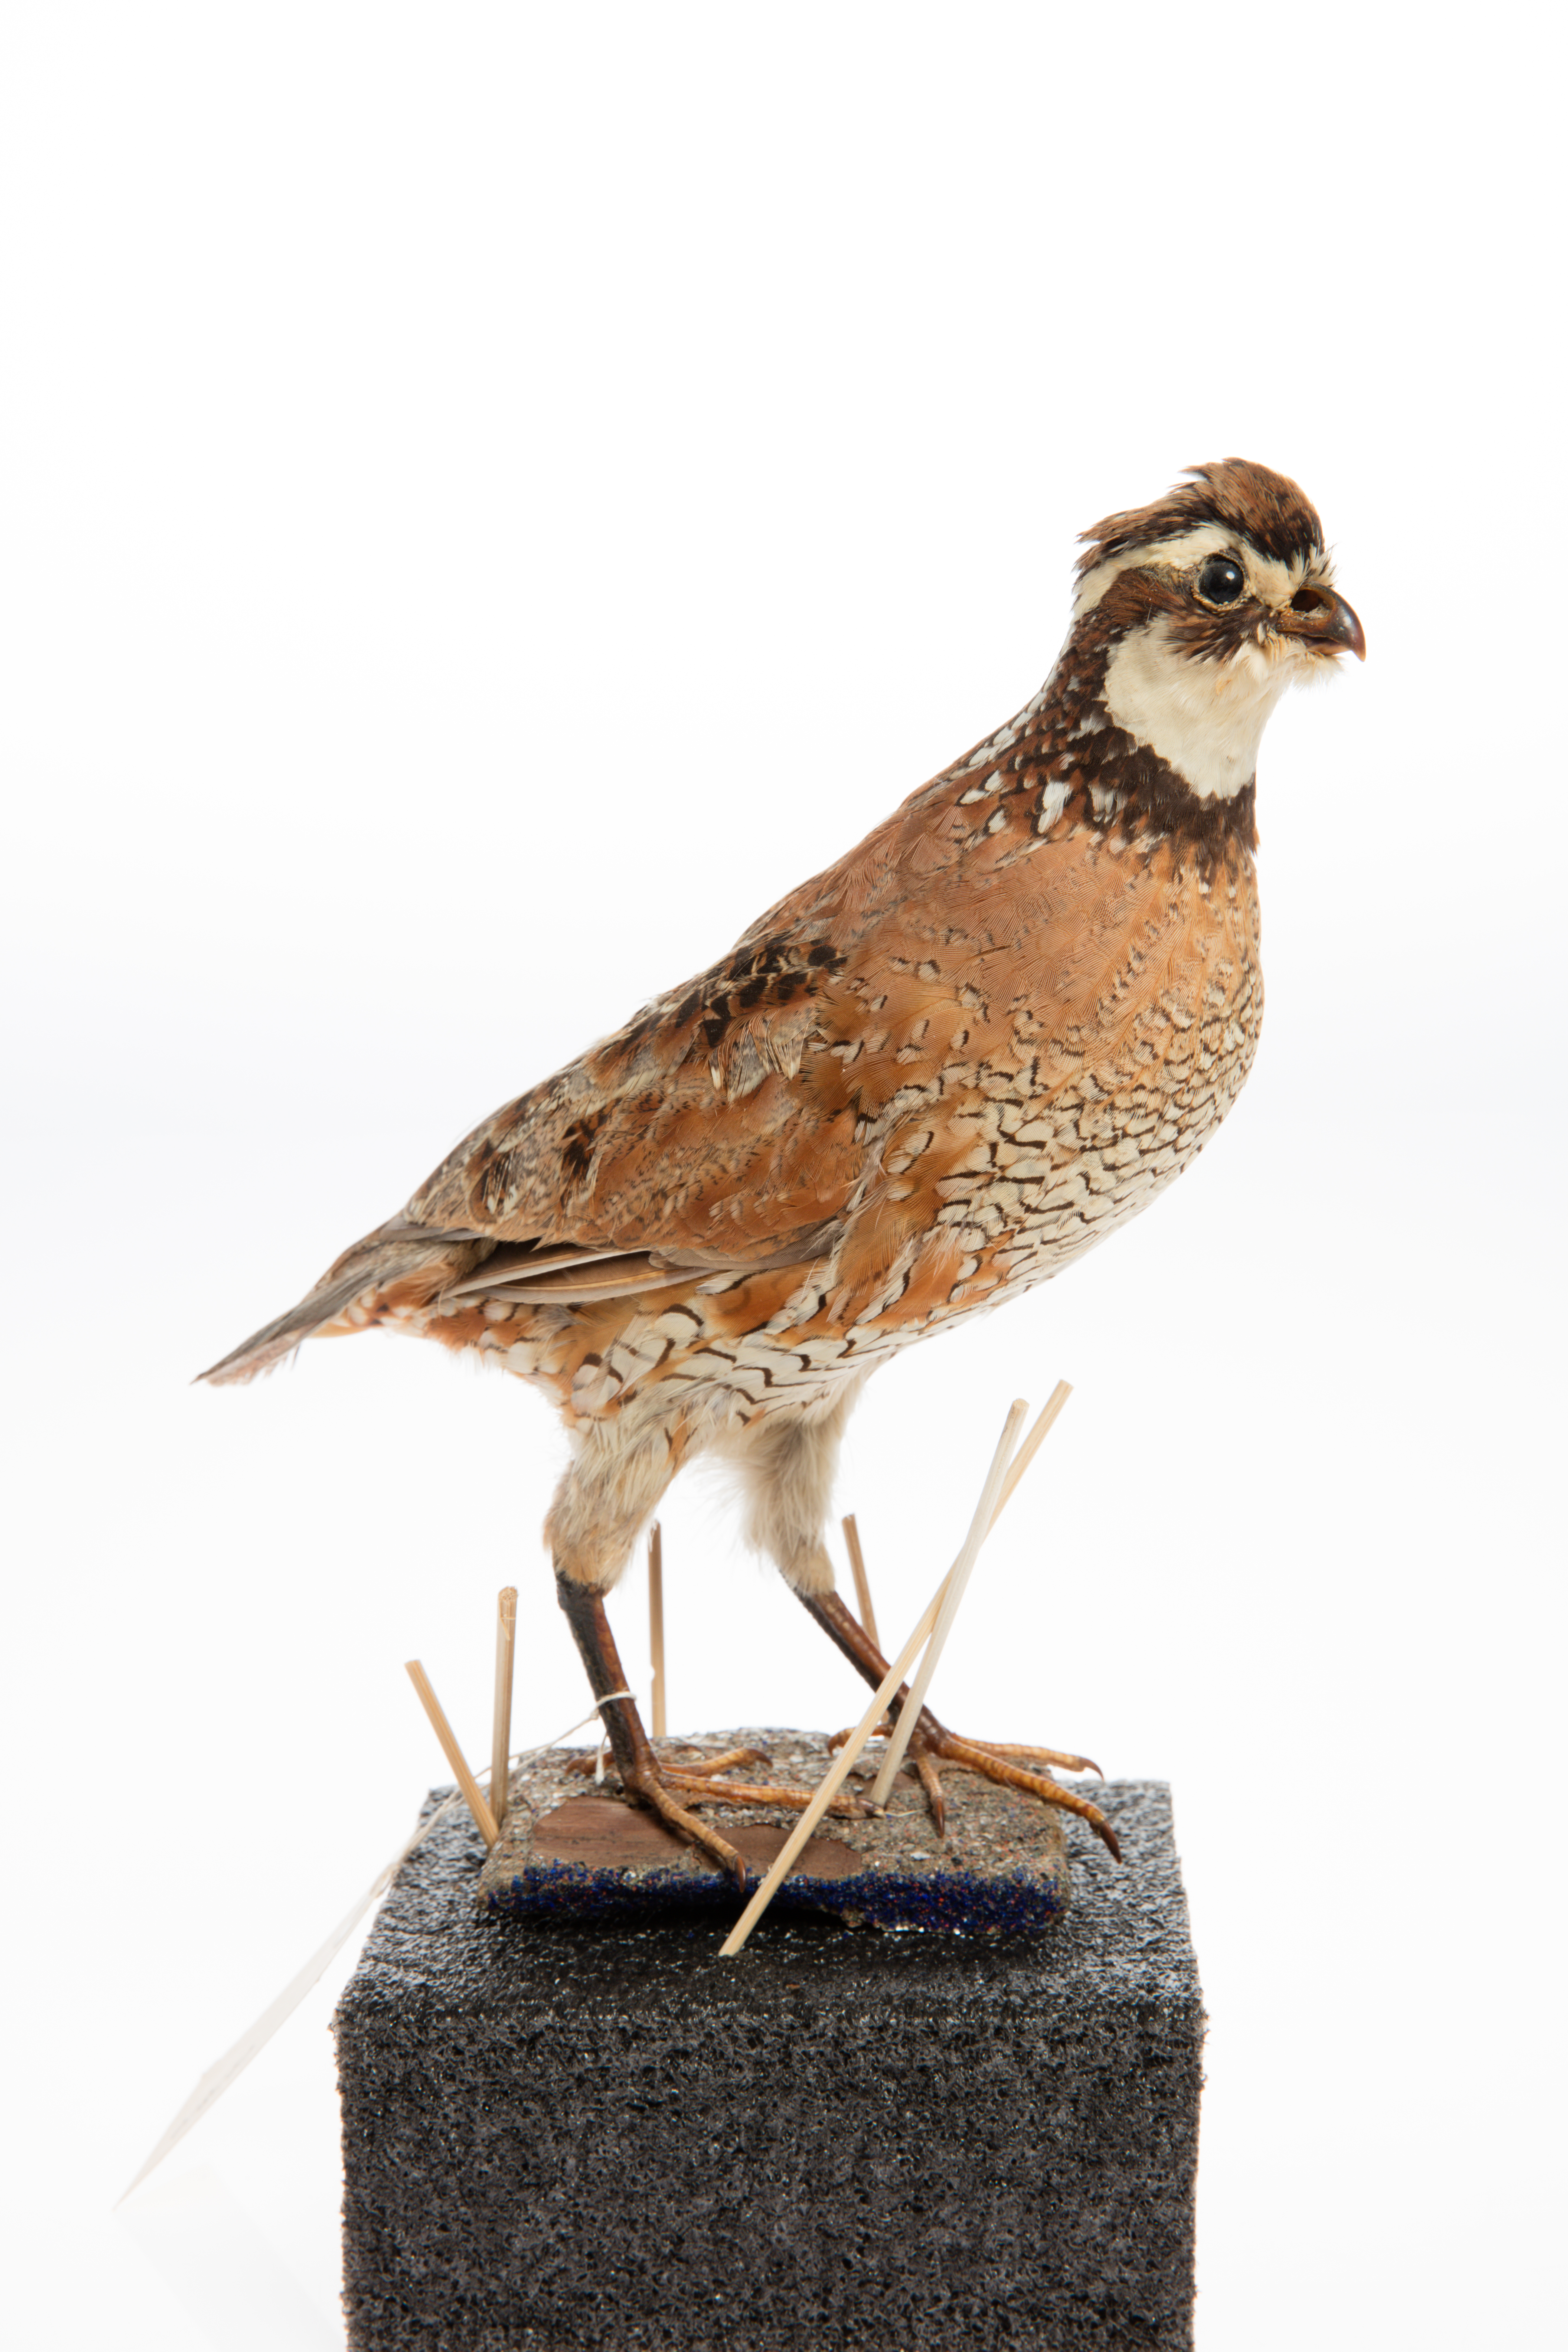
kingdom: Animalia
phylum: Chordata
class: Aves
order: Galliformes
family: Odontophoridae
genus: Colinus
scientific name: Colinus virginianus
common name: Northern bobwhite
